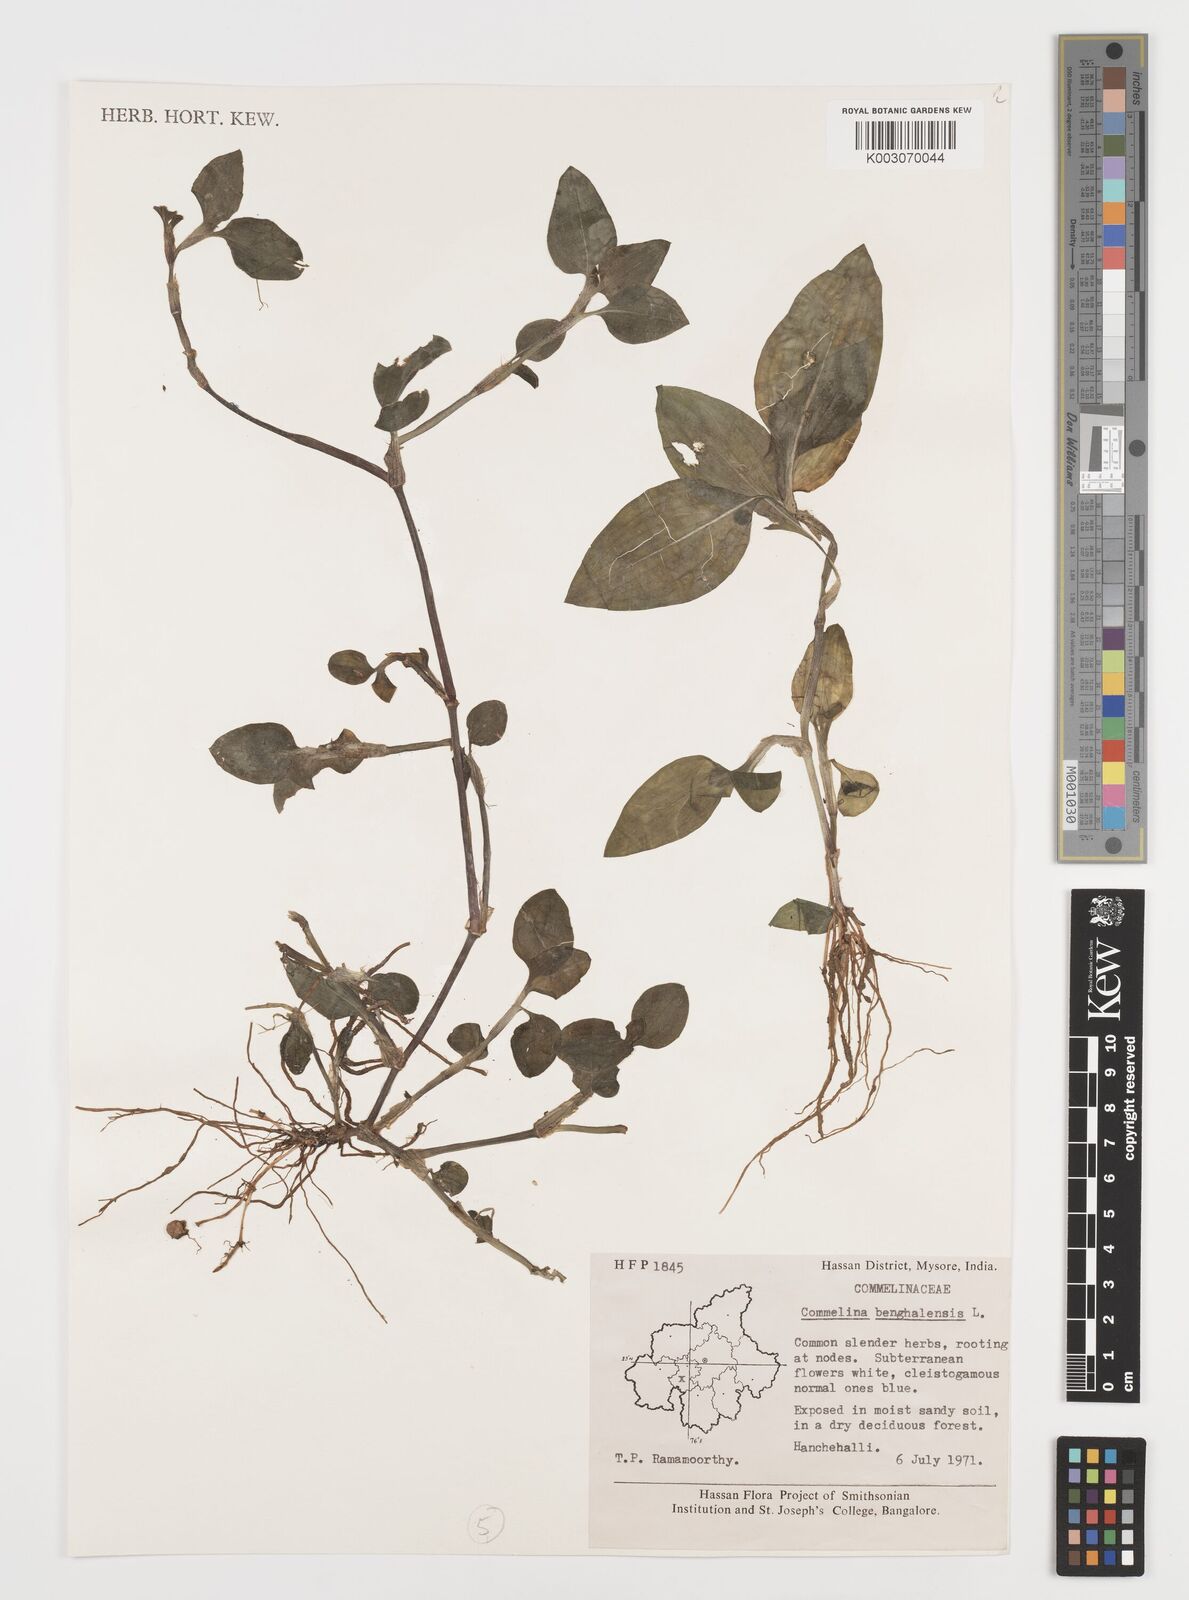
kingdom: Plantae
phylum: Tracheophyta
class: Liliopsida
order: Commelinales
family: Commelinaceae
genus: Commelina
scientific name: Commelina benghalensis
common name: Jio
